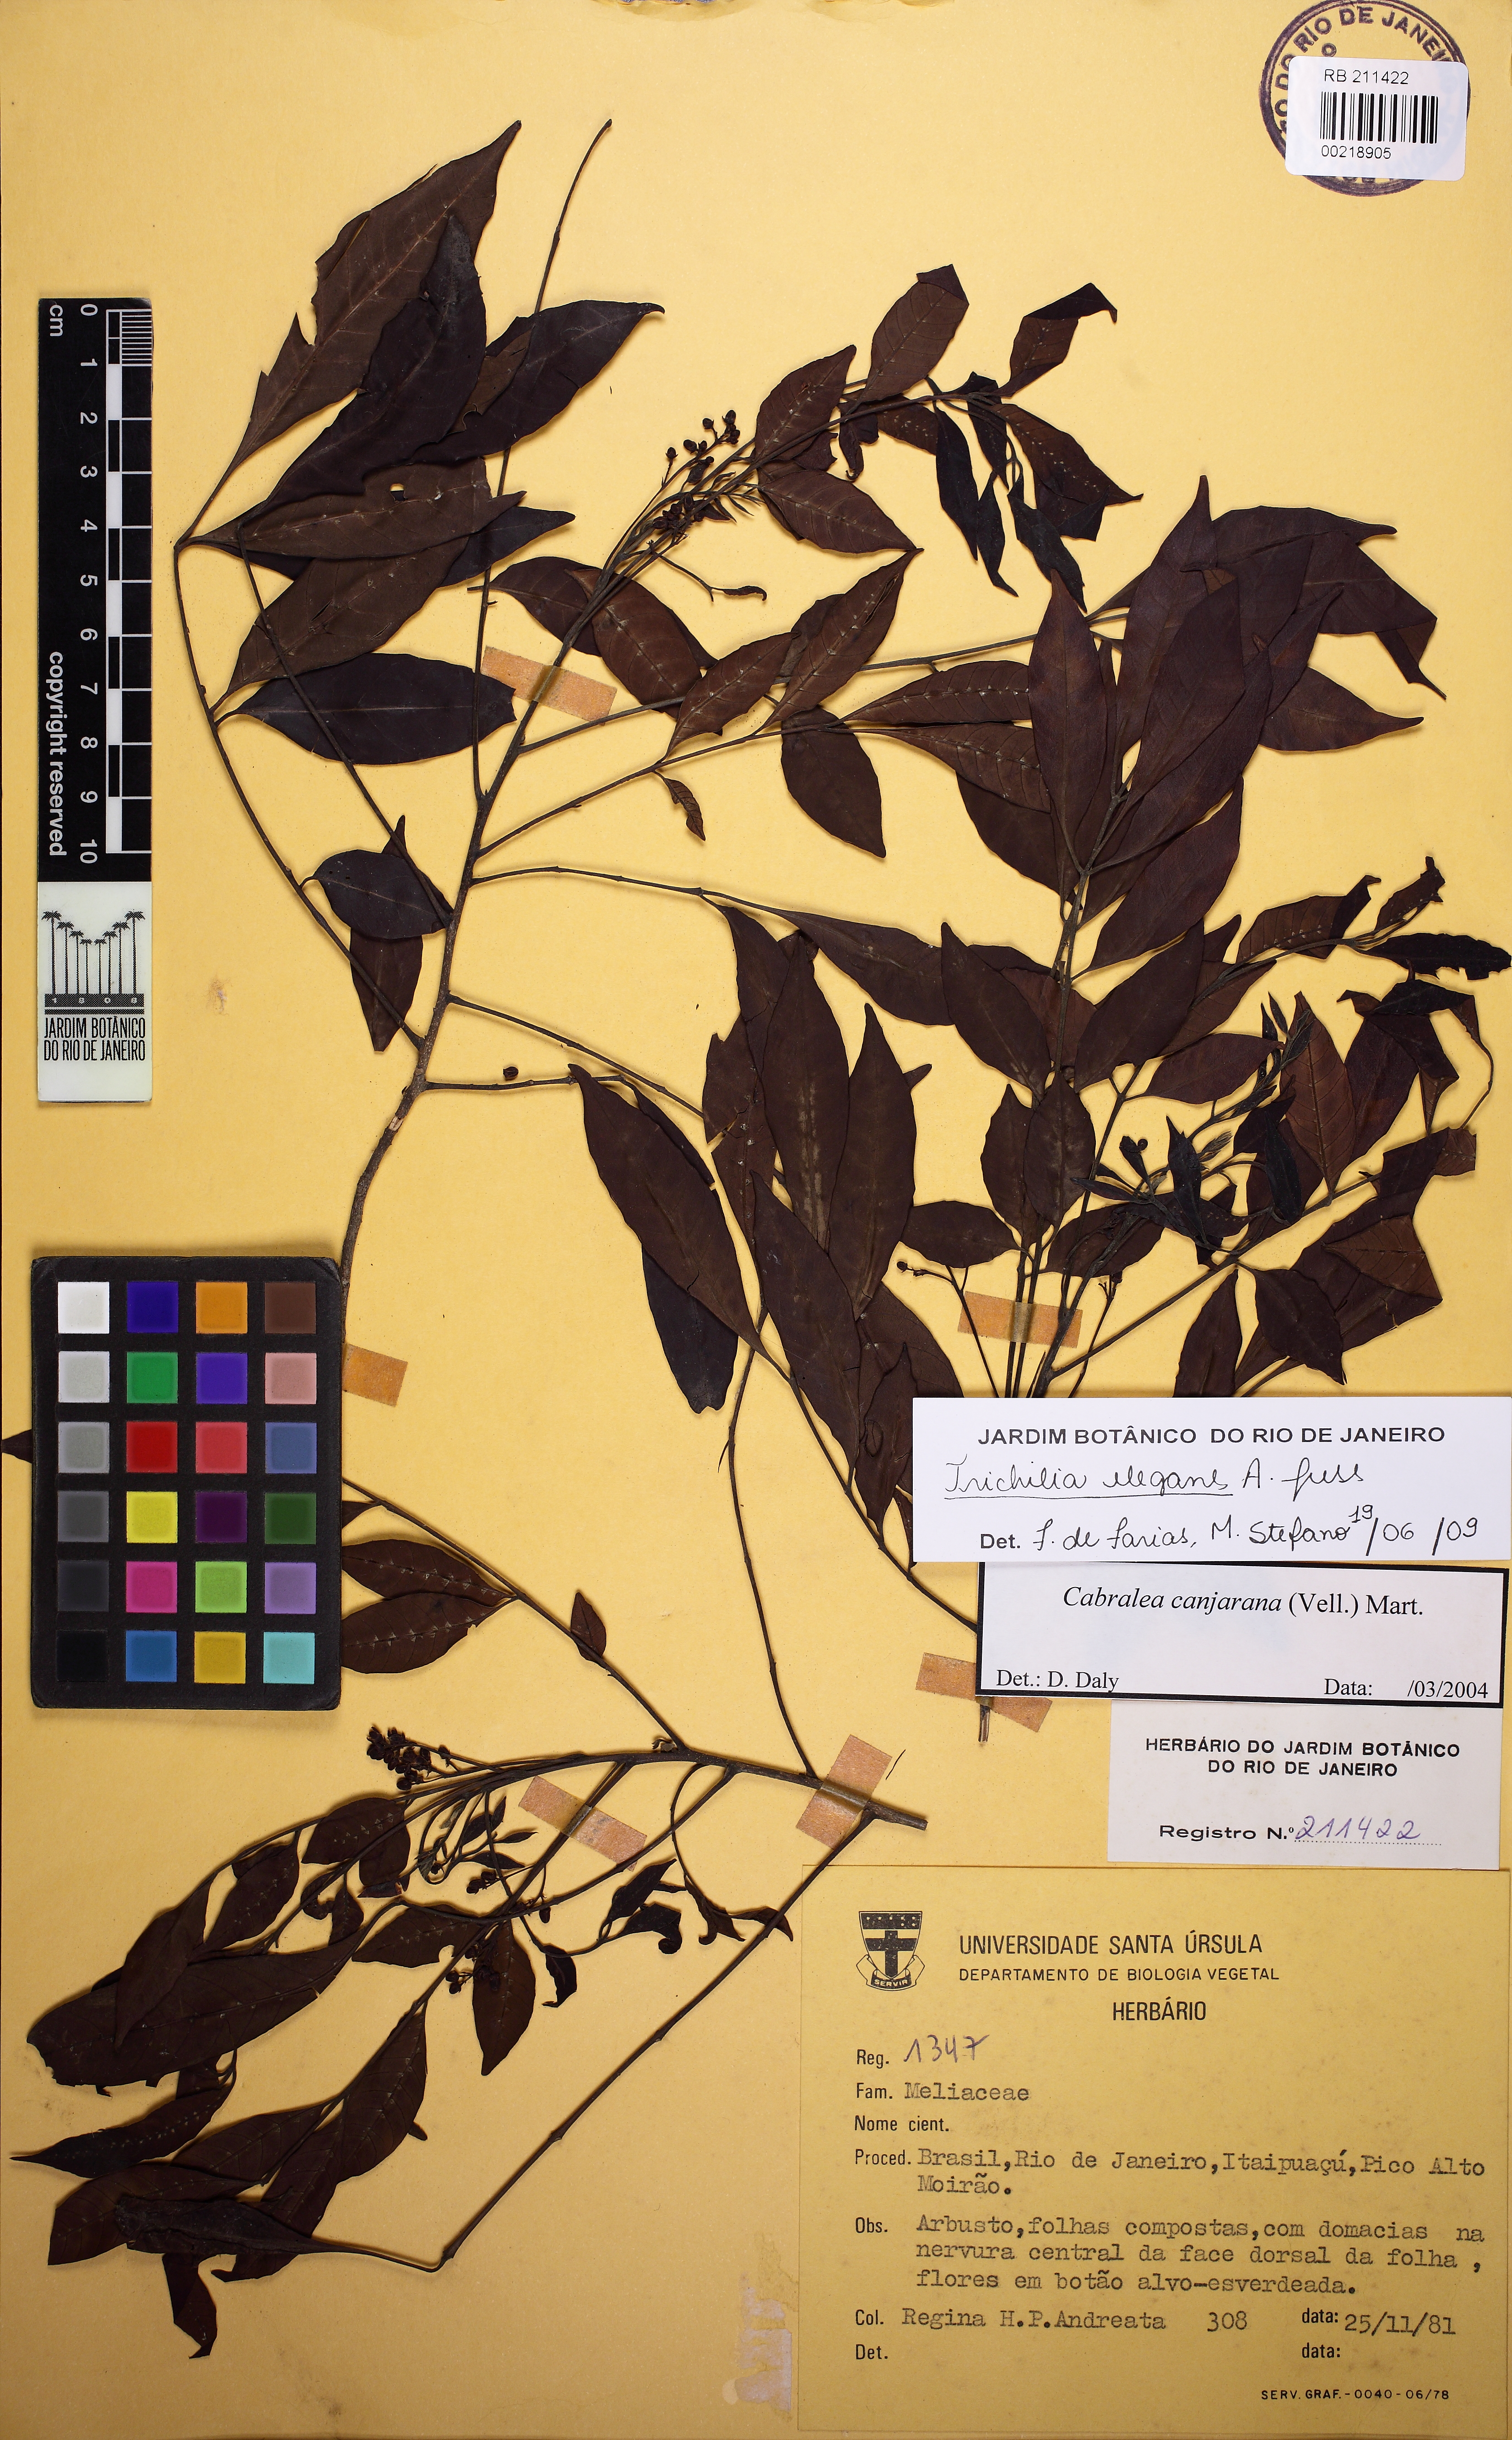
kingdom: Plantae
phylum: Tracheophyta
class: Magnoliopsida
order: Sapindales
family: Meliaceae
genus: Trichilia
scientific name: Trichilia elegans
